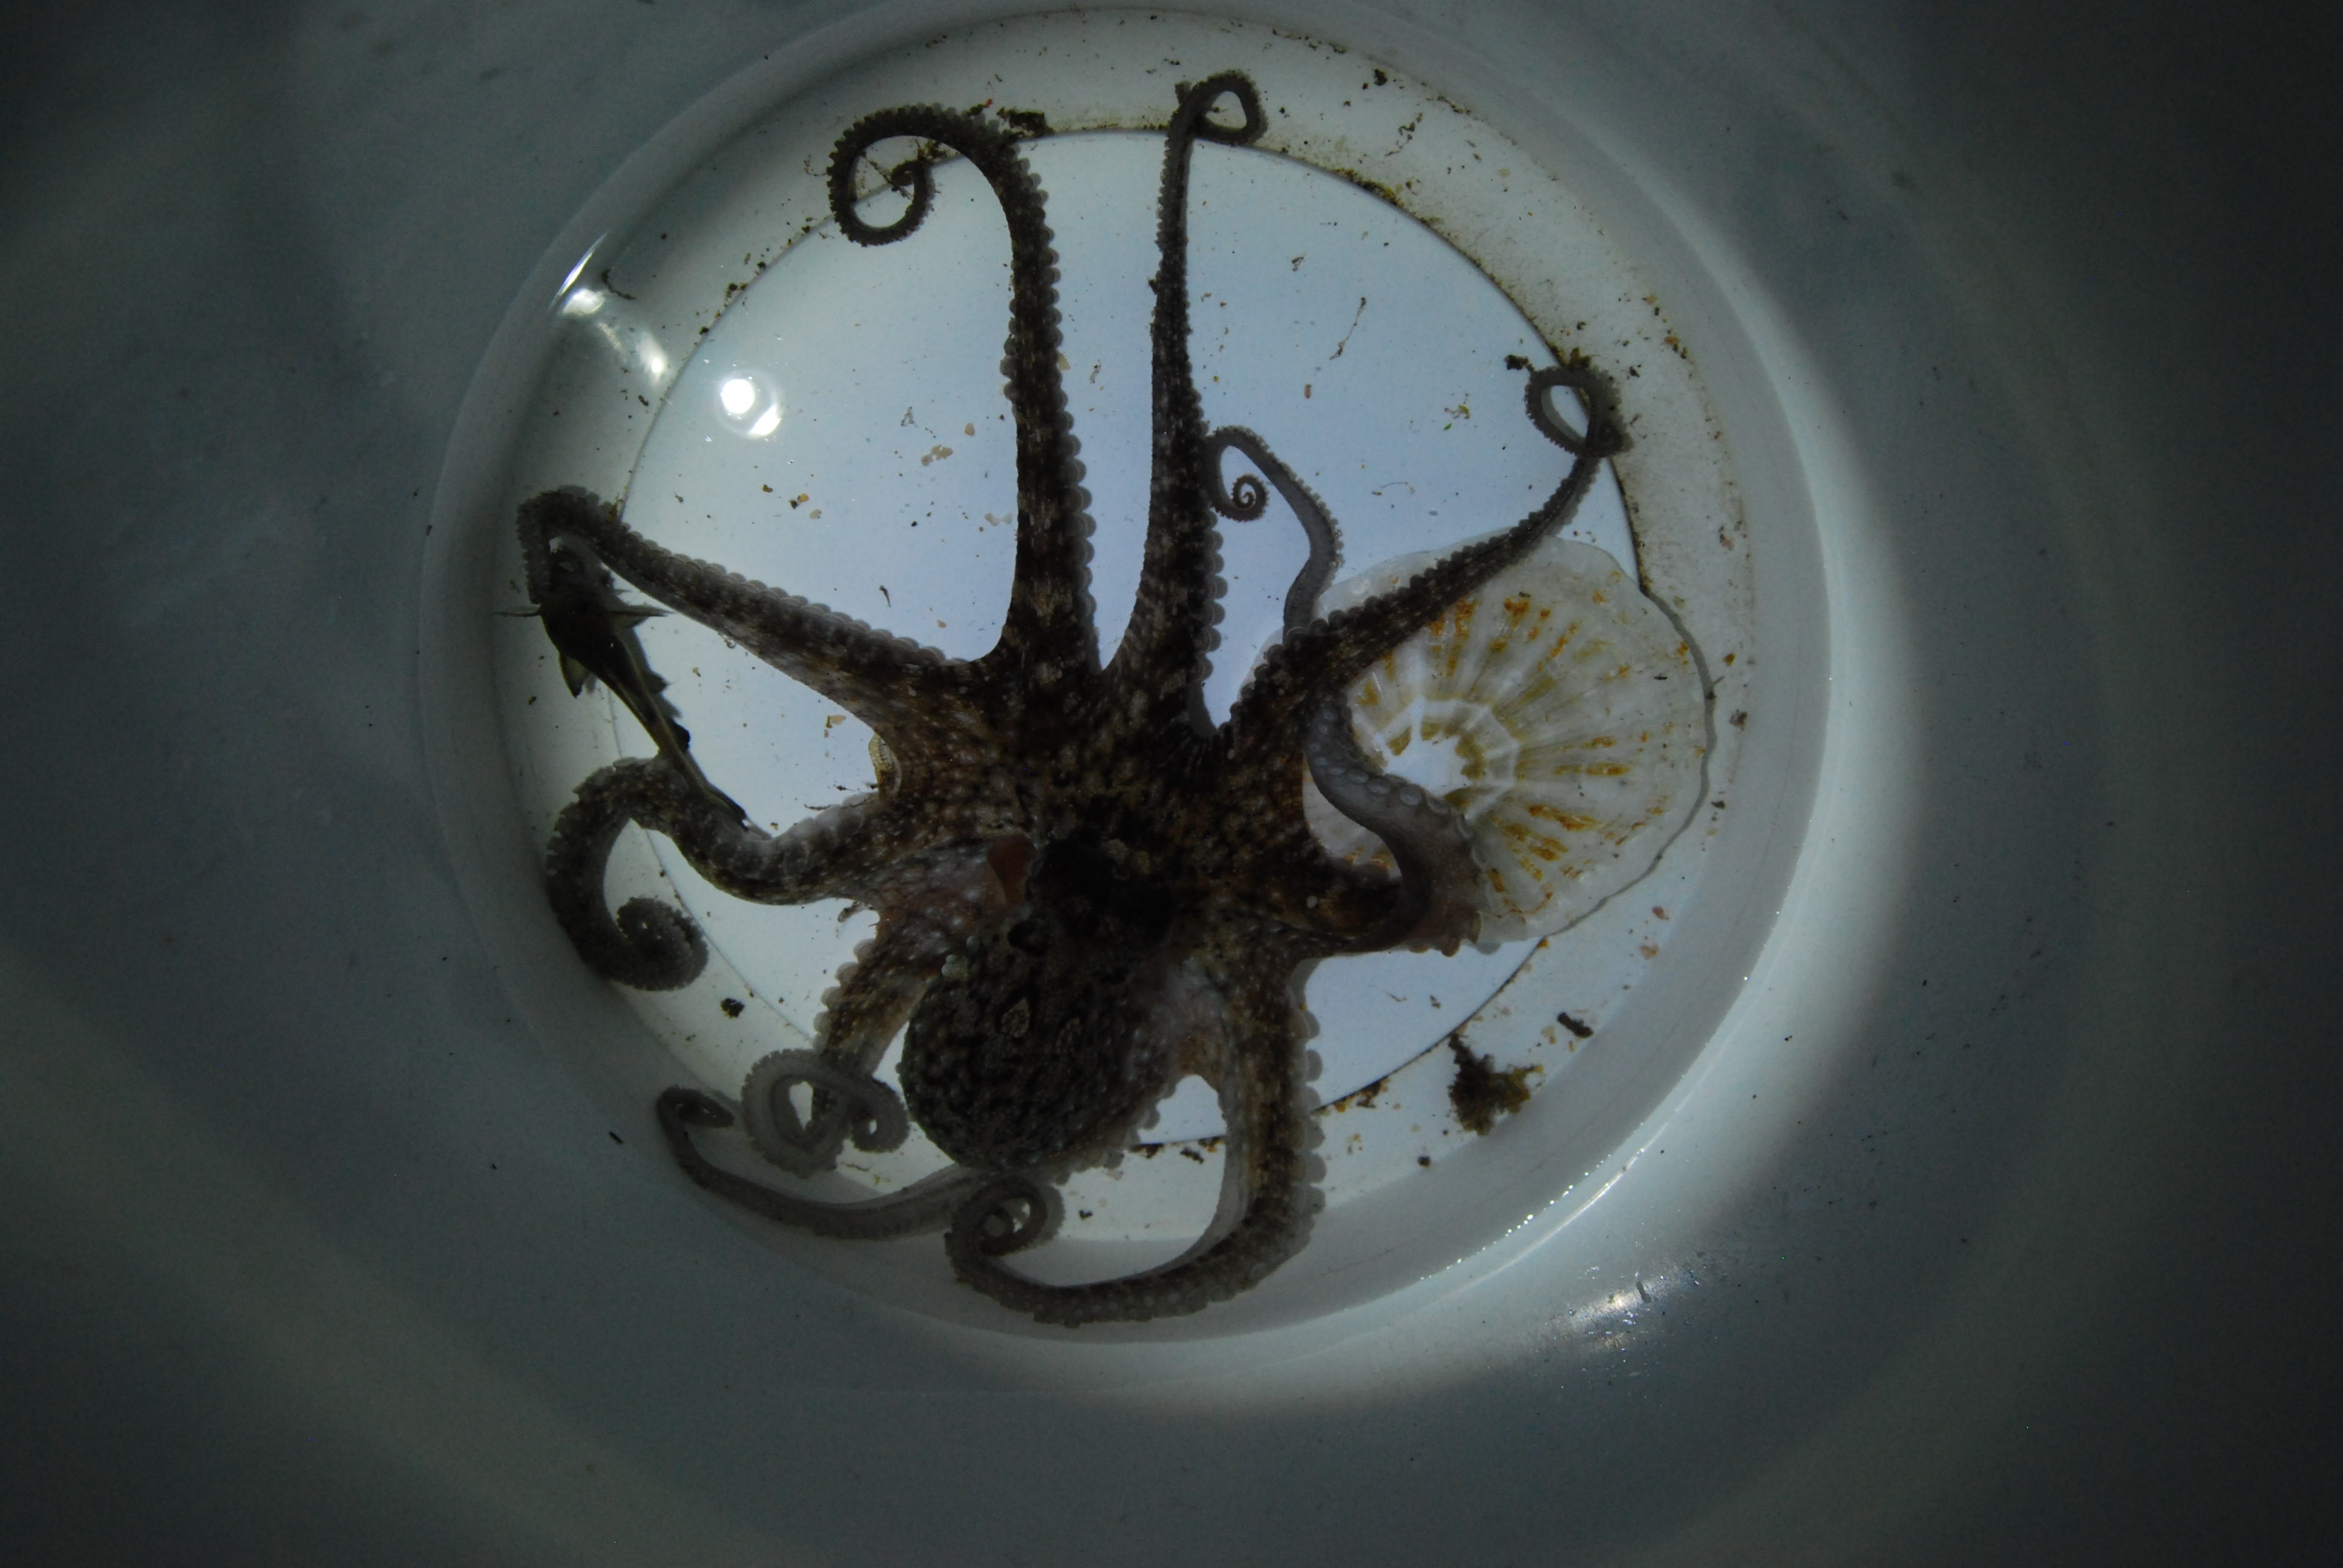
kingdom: Animalia
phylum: Mollusca
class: Cephalopoda
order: Octopoda
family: Octopodidae
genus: Octopus
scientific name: Octopus vulgaris
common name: Common octopus
